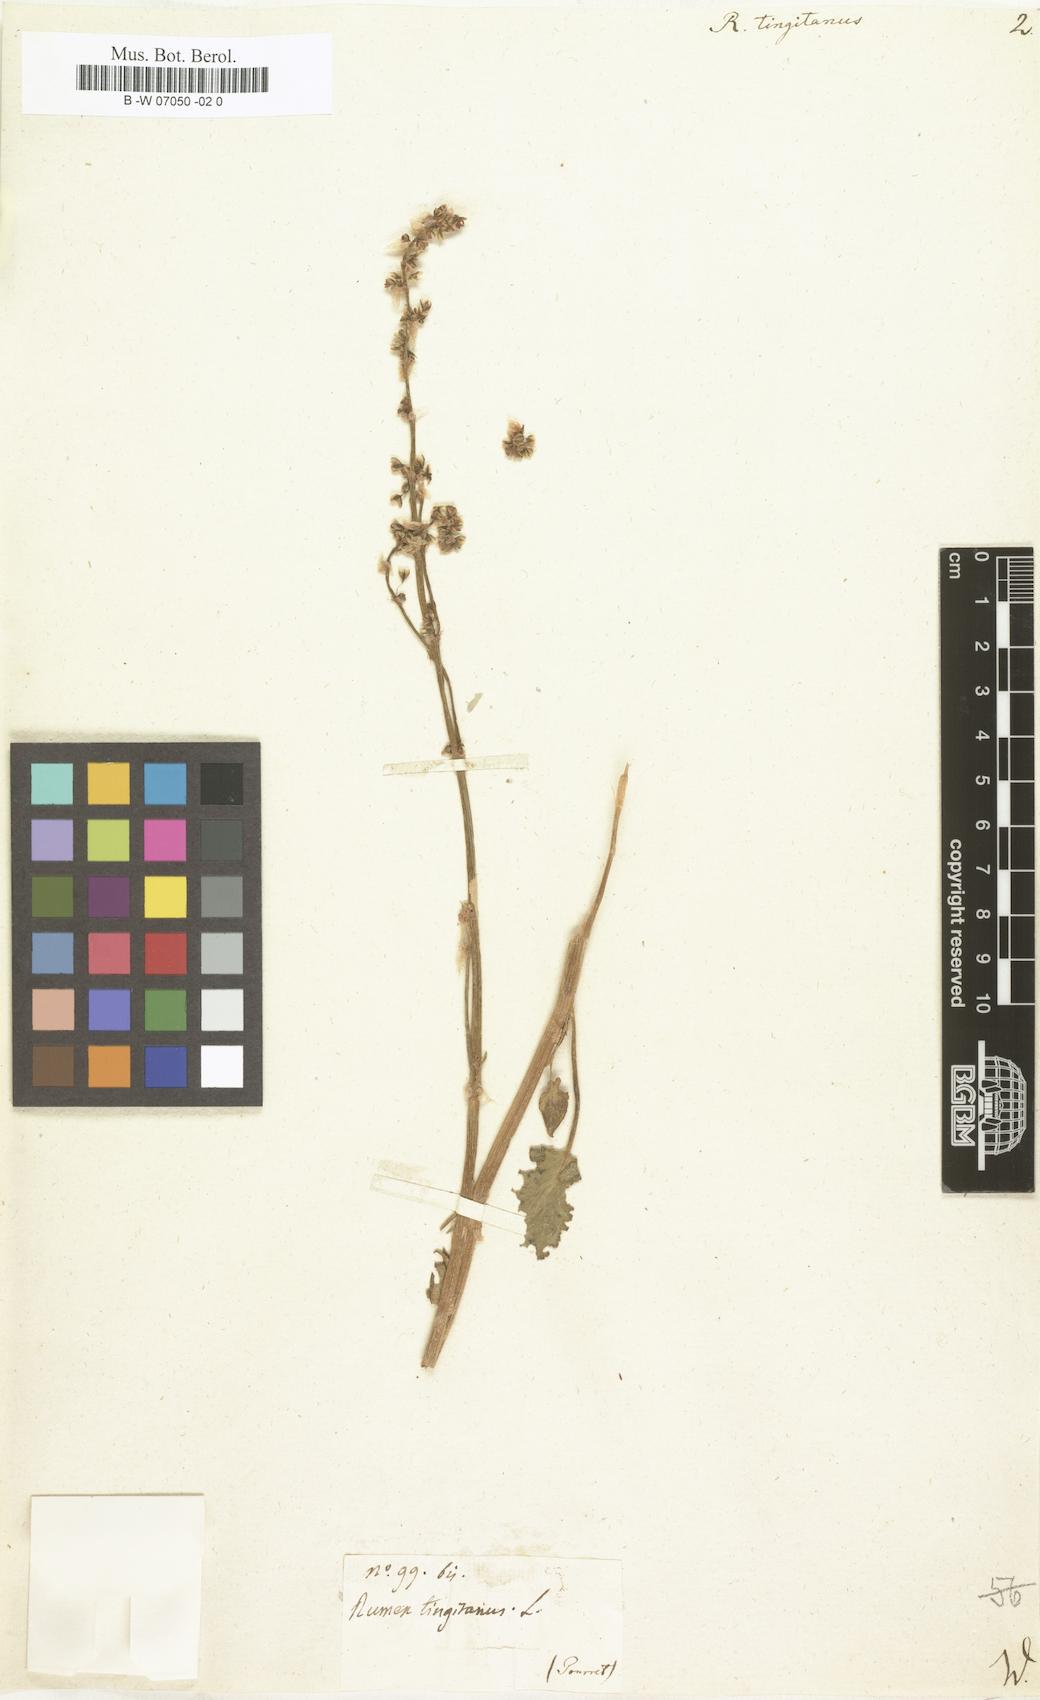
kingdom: Plantae
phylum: Tracheophyta
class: Magnoliopsida
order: Caryophyllales
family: Polygonaceae
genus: Rumex
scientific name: Rumex
